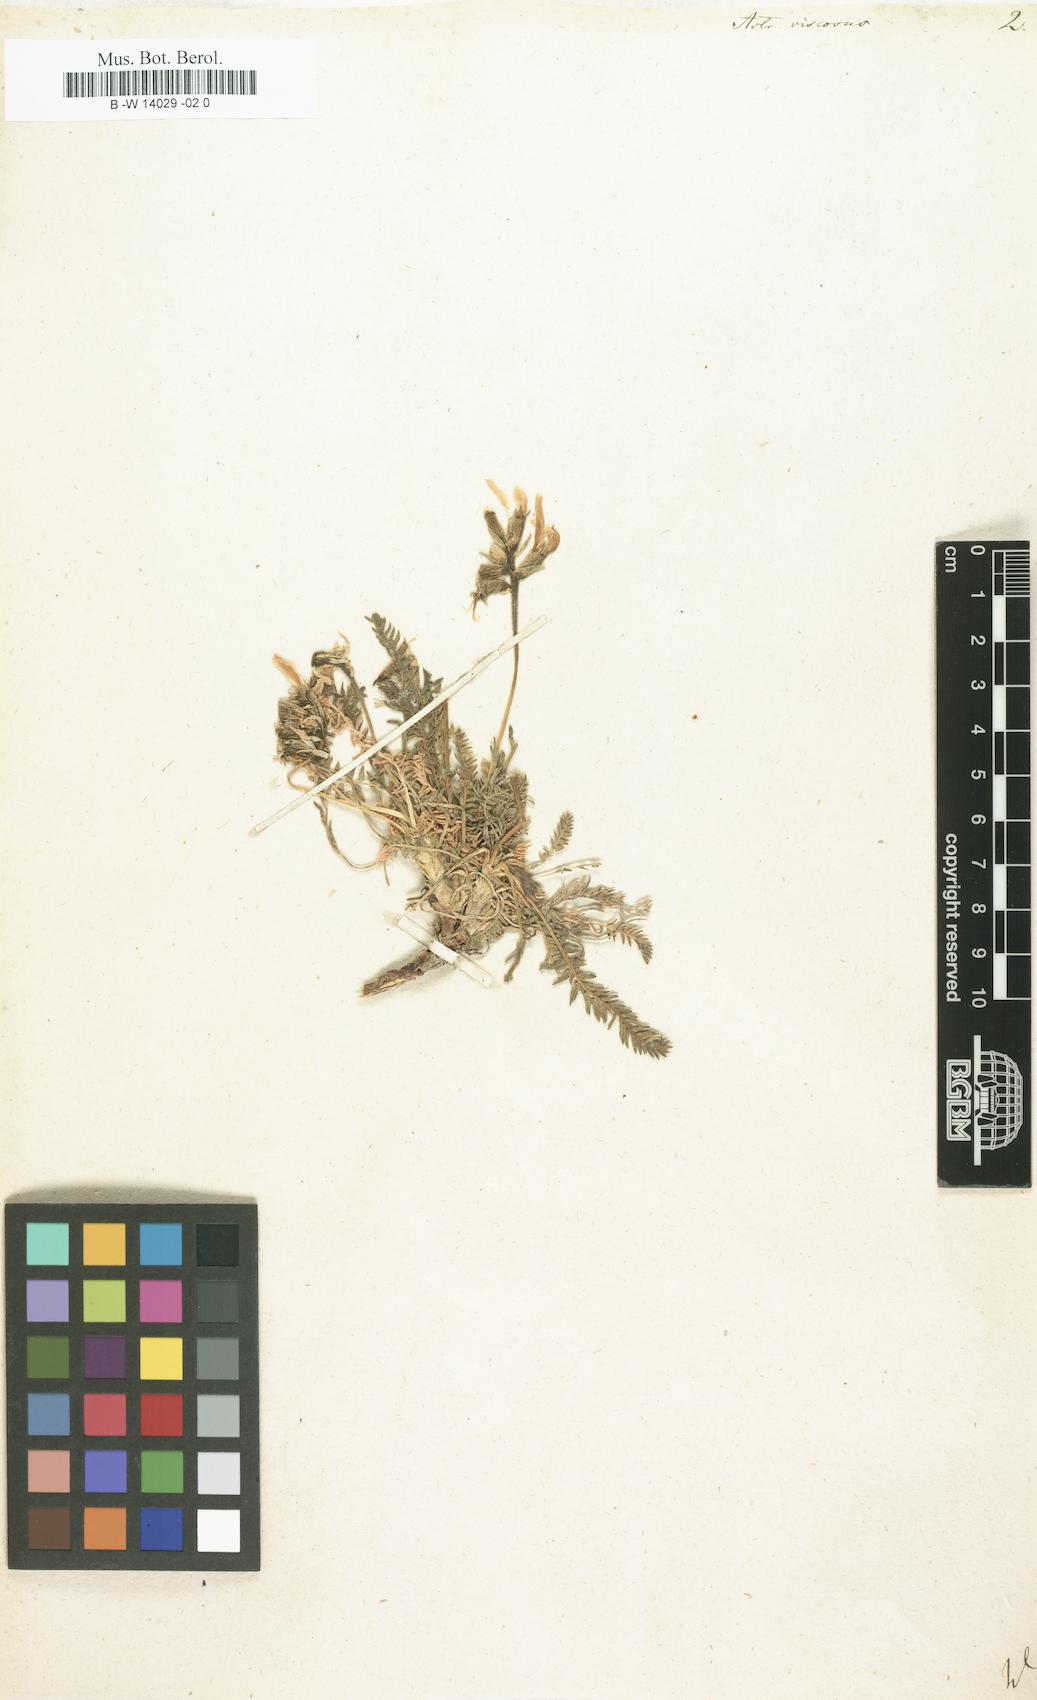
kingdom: Plantae
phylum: Tracheophyta
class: Magnoliopsida
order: Fabales
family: Fabaceae
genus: Oxytropis
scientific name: Oxytropis fetida
